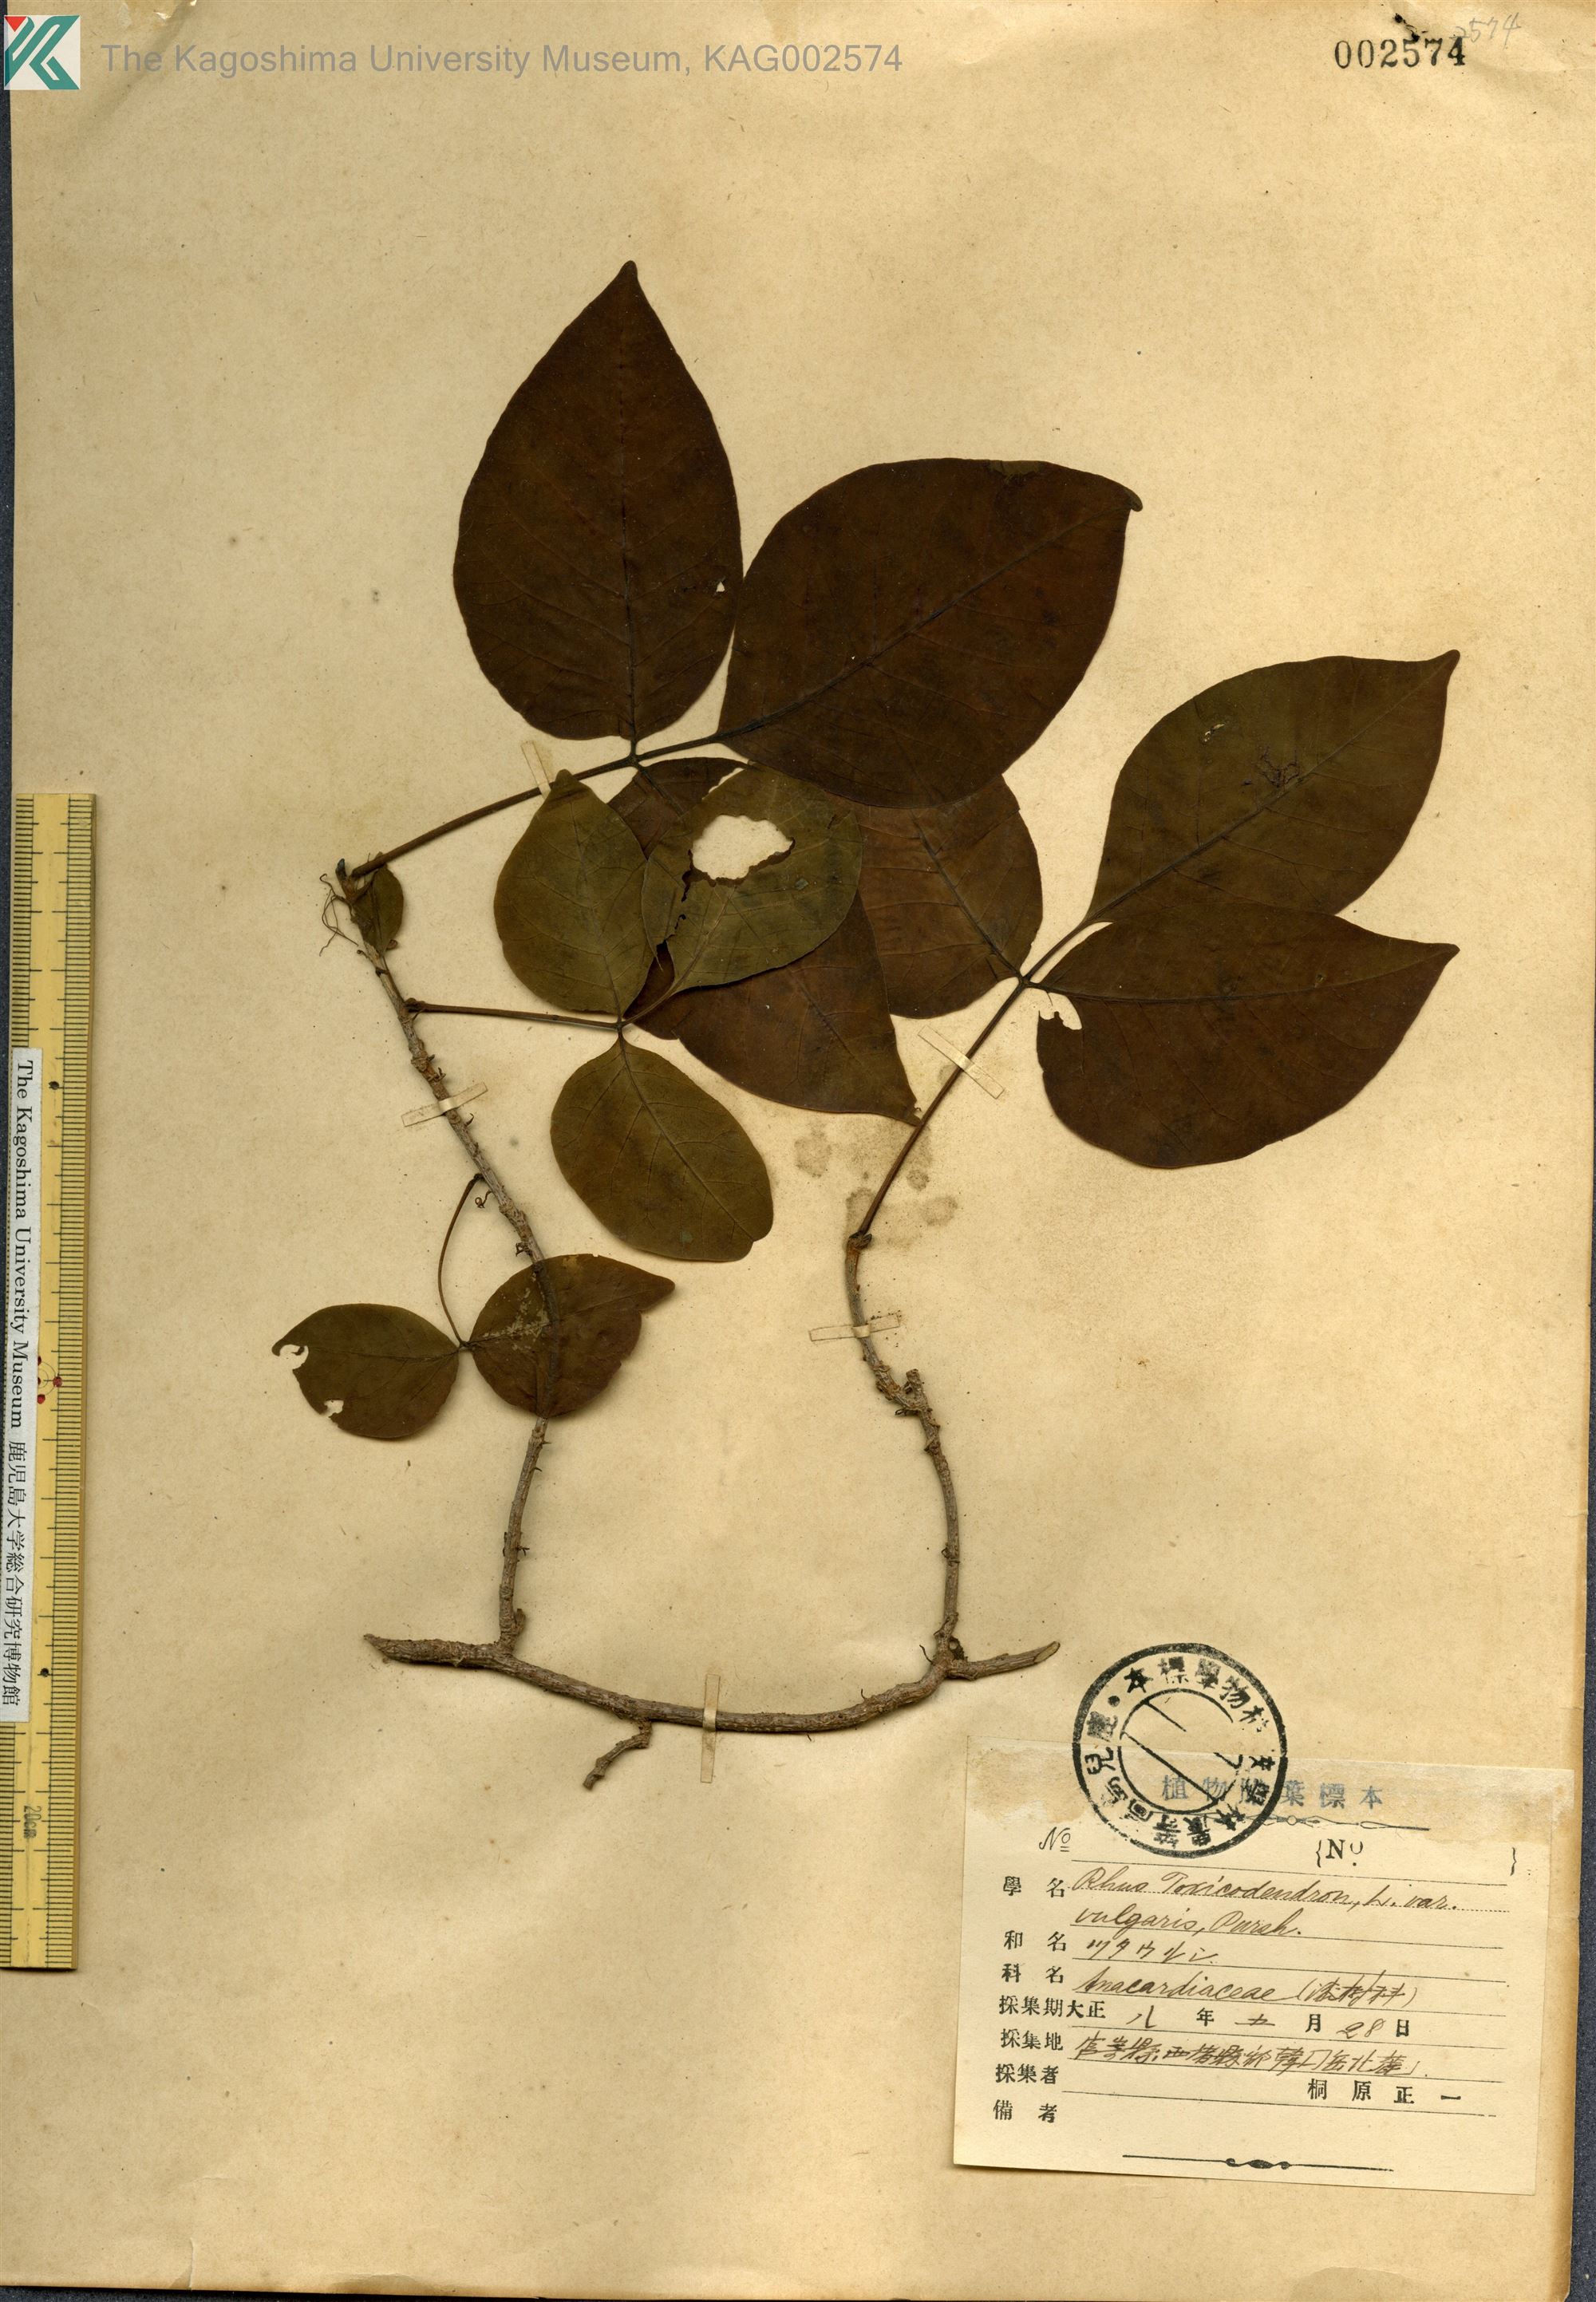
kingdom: Plantae
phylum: Tracheophyta
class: Magnoliopsida
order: Sapindales
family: Anacardiaceae
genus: Toxicodendron
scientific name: Toxicodendron orientale
